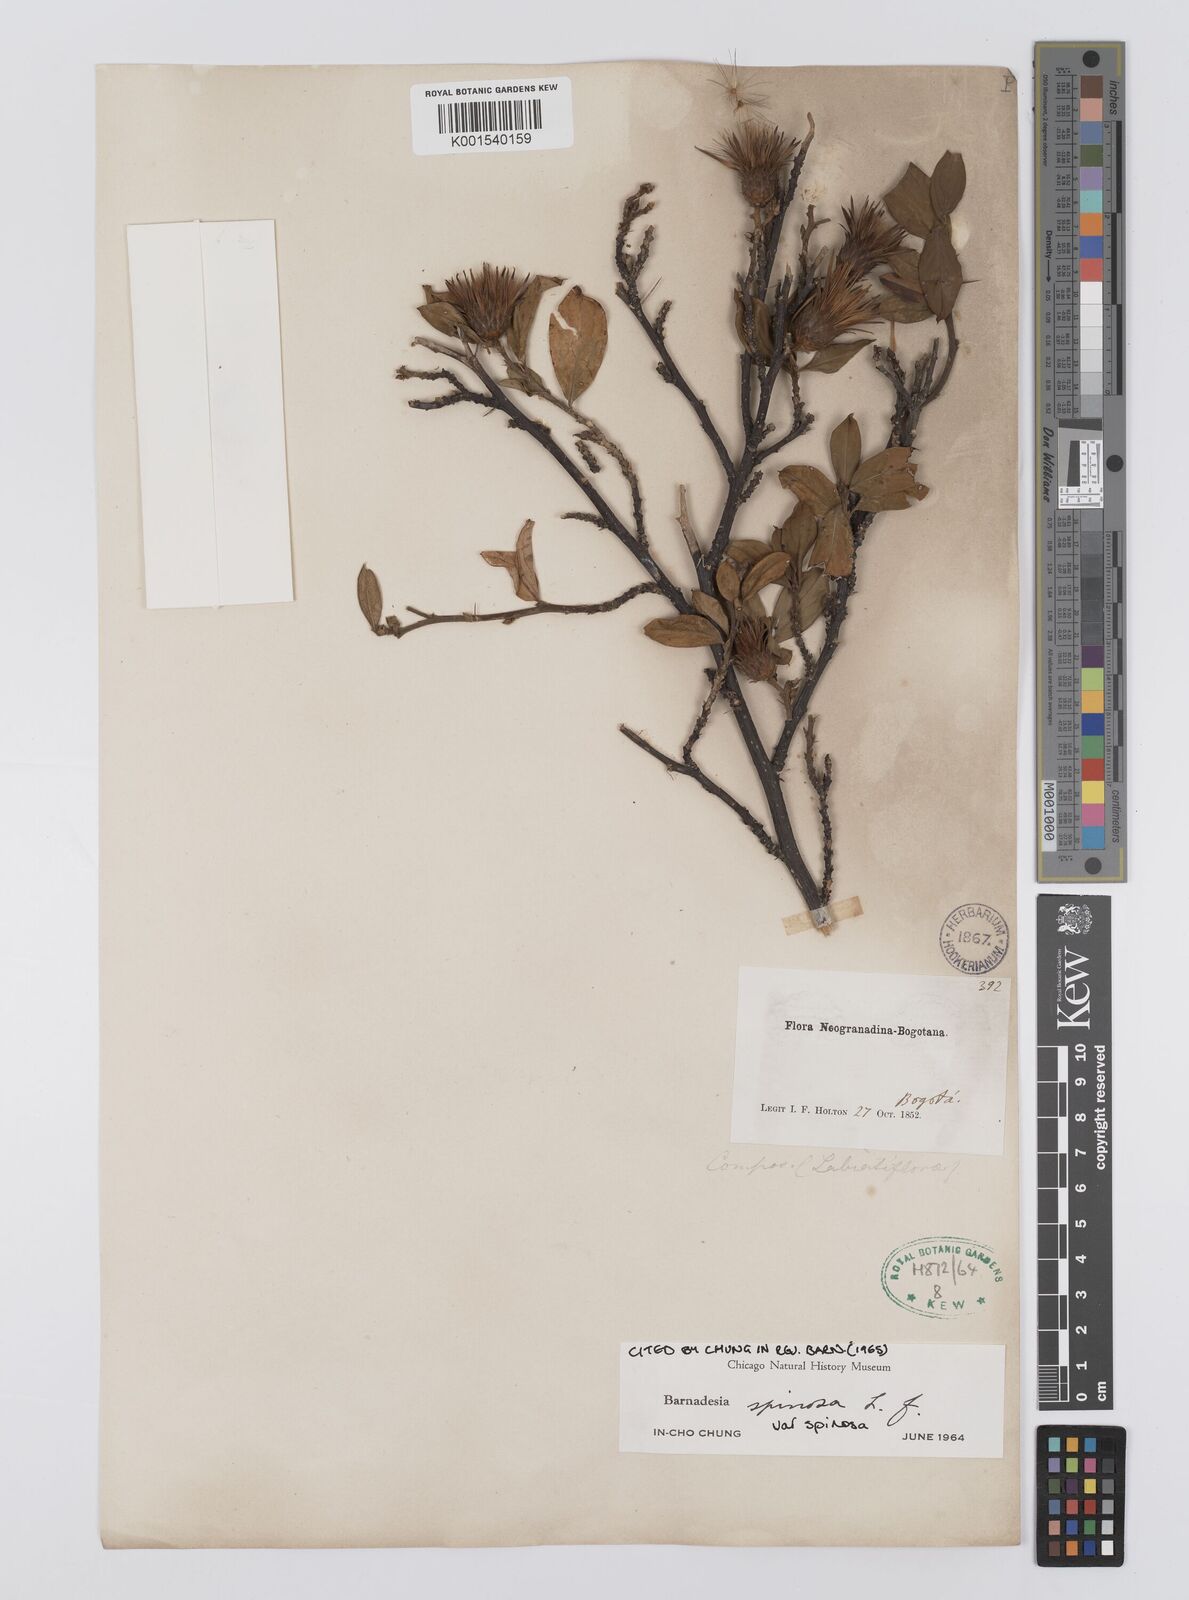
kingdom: Plantae
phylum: Tracheophyta
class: Magnoliopsida
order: Asterales
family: Asteraceae
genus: Barnadesia
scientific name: Barnadesia spinosa
